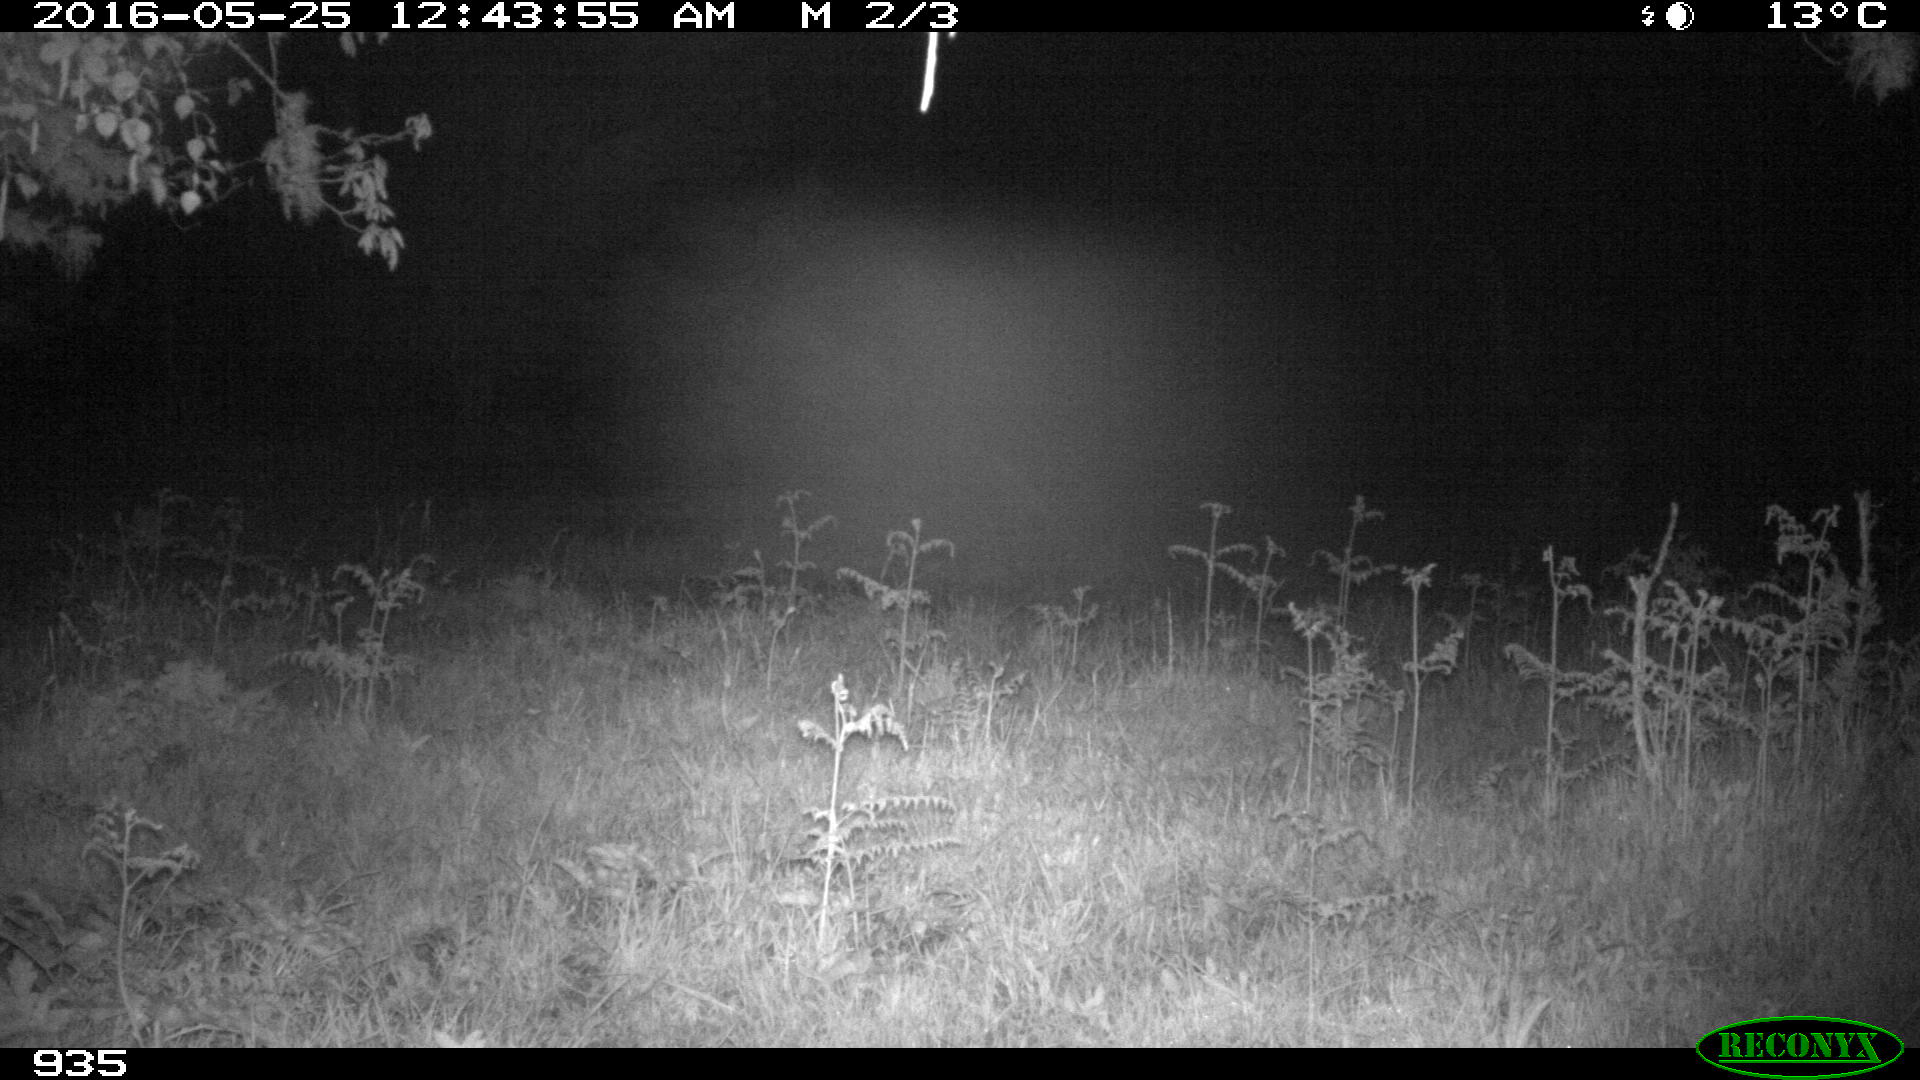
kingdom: Animalia
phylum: Chordata
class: Mammalia
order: Artiodactyla
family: Suidae
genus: Sus
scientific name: Sus scrofa
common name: Wild boar
